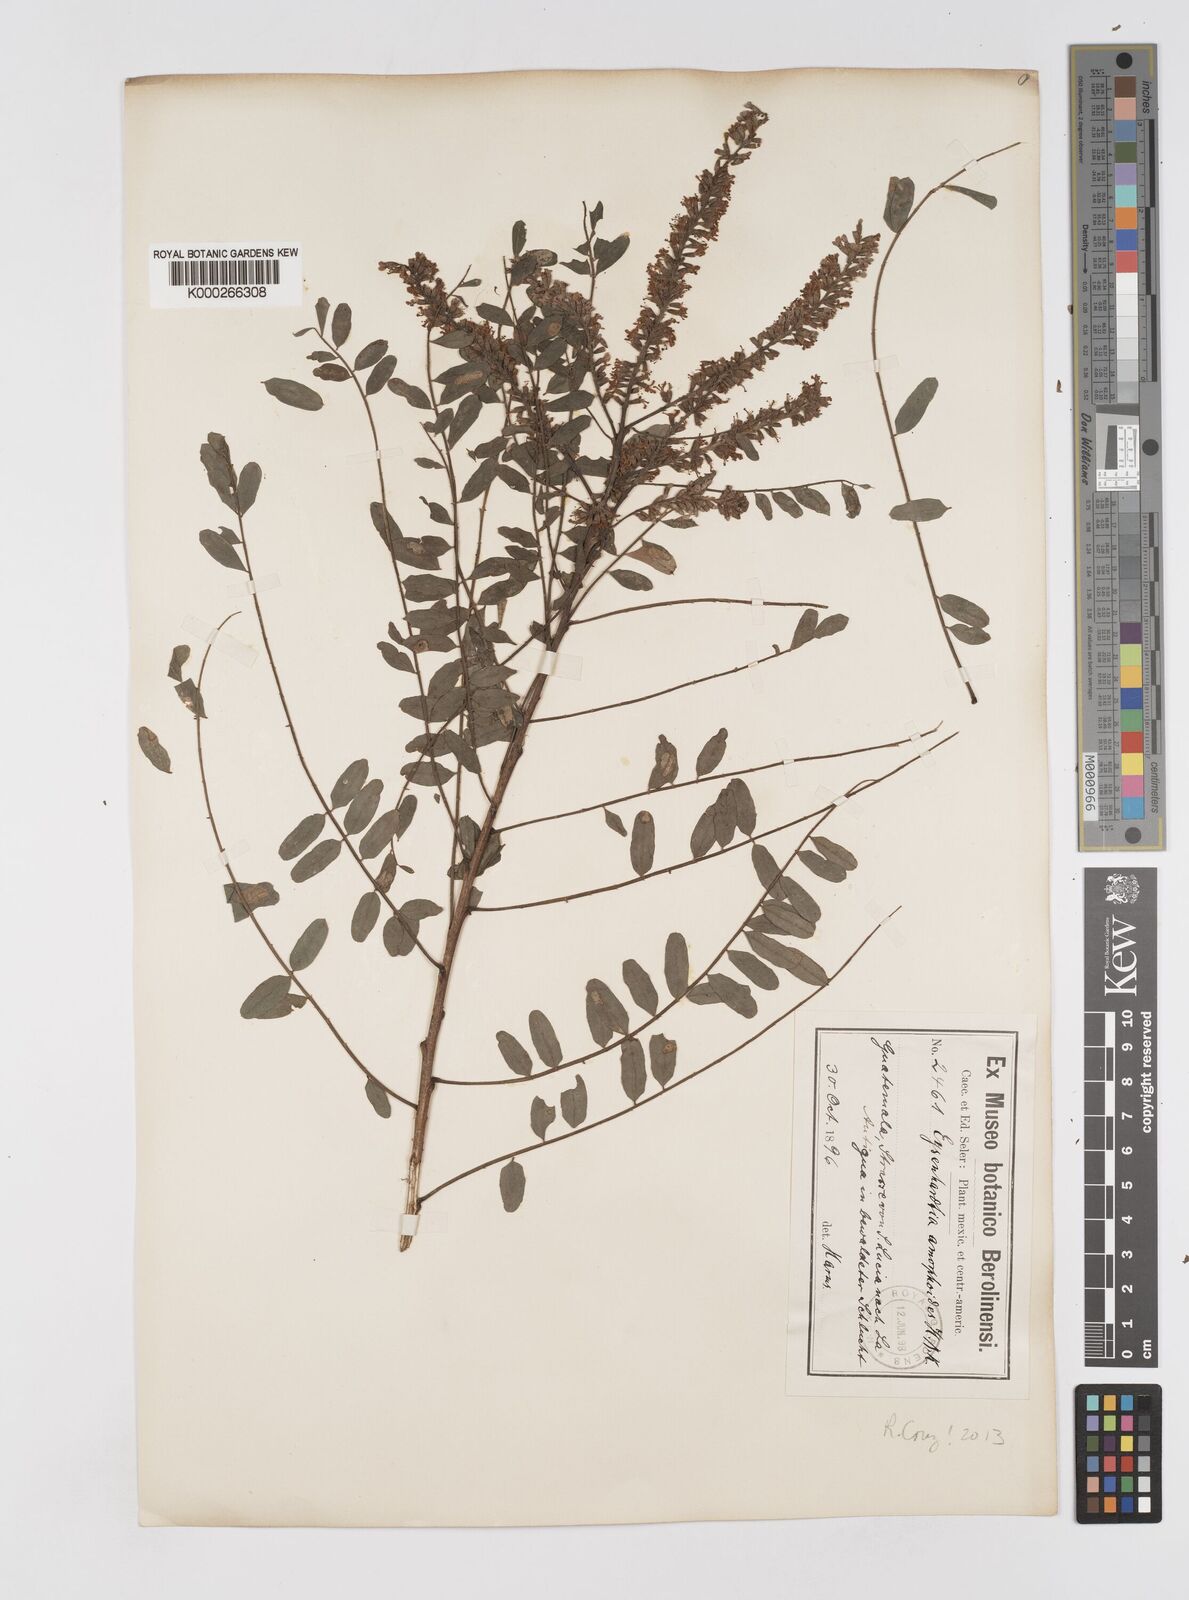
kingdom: Plantae
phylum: Tracheophyta
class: Magnoliopsida
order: Fabales
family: Fabaceae
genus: Eysenhardtia
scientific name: Eysenhardtia adenostylis
